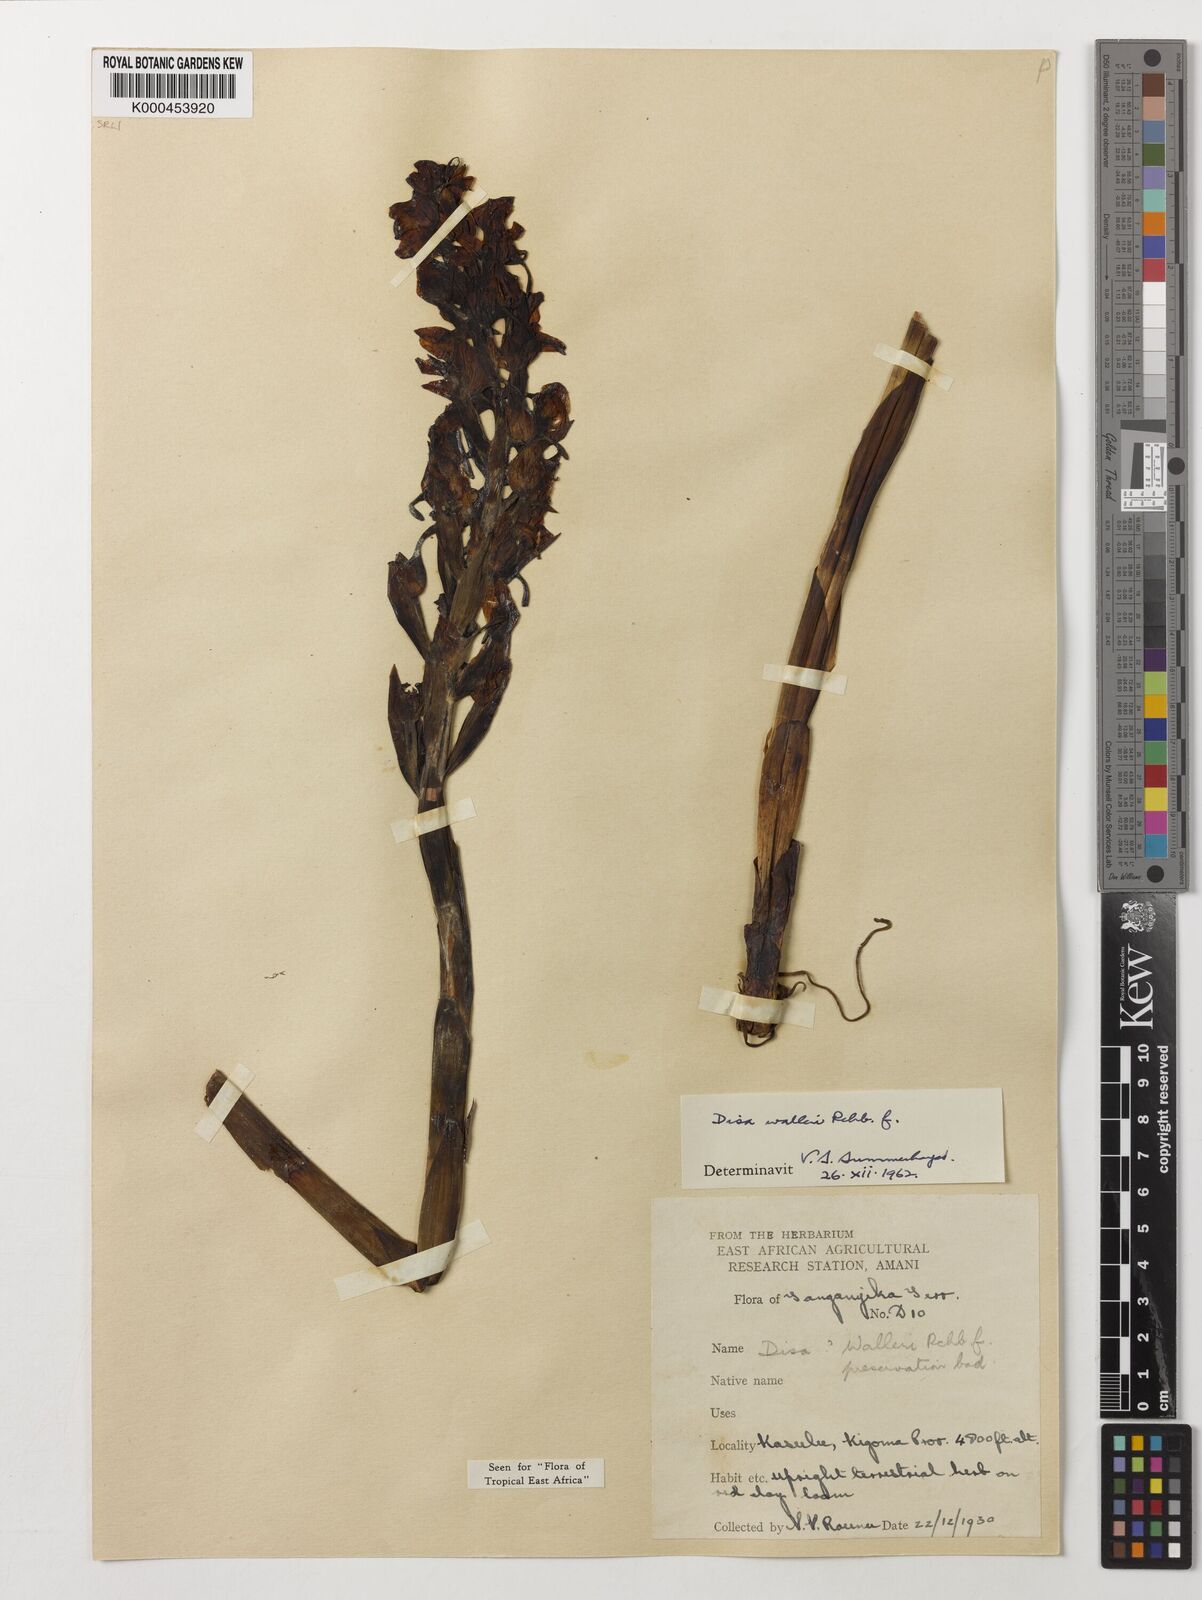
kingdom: Plantae
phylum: Tracheophyta
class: Liliopsida
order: Asparagales
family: Orchidaceae
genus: Disa
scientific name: Disa walleri
